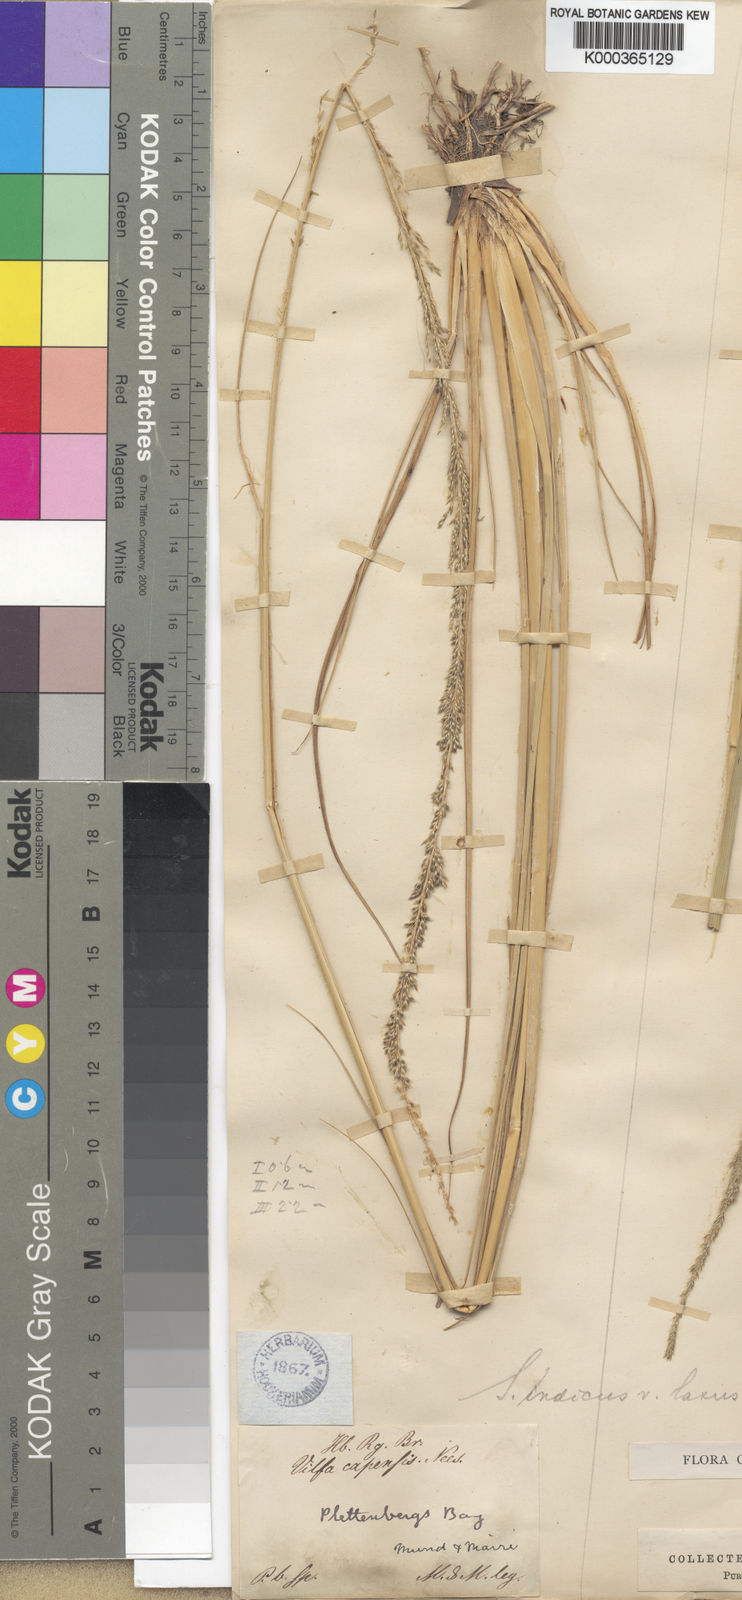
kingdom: Plantae
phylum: Tracheophyta
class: Liliopsida
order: Poales
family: Poaceae
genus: Sporobolus
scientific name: Sporobolus africanus
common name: African dropseed
